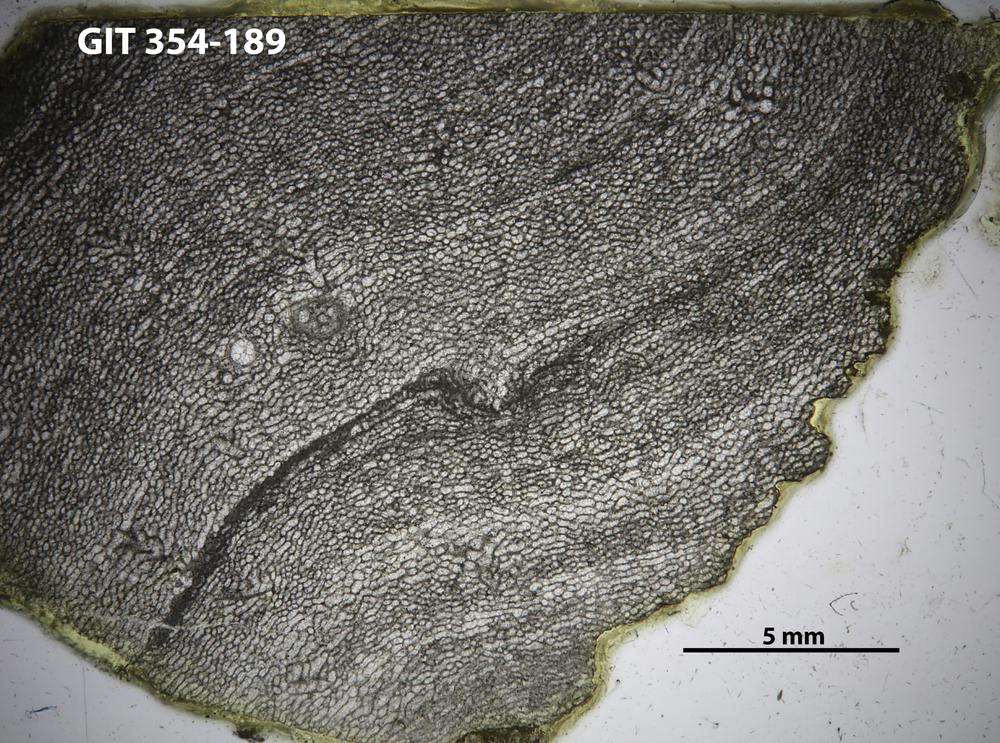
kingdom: Animalia
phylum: Porifera
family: Clathrodictyidae
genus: Clathrodictyon
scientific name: Clathrodictyon boreale
